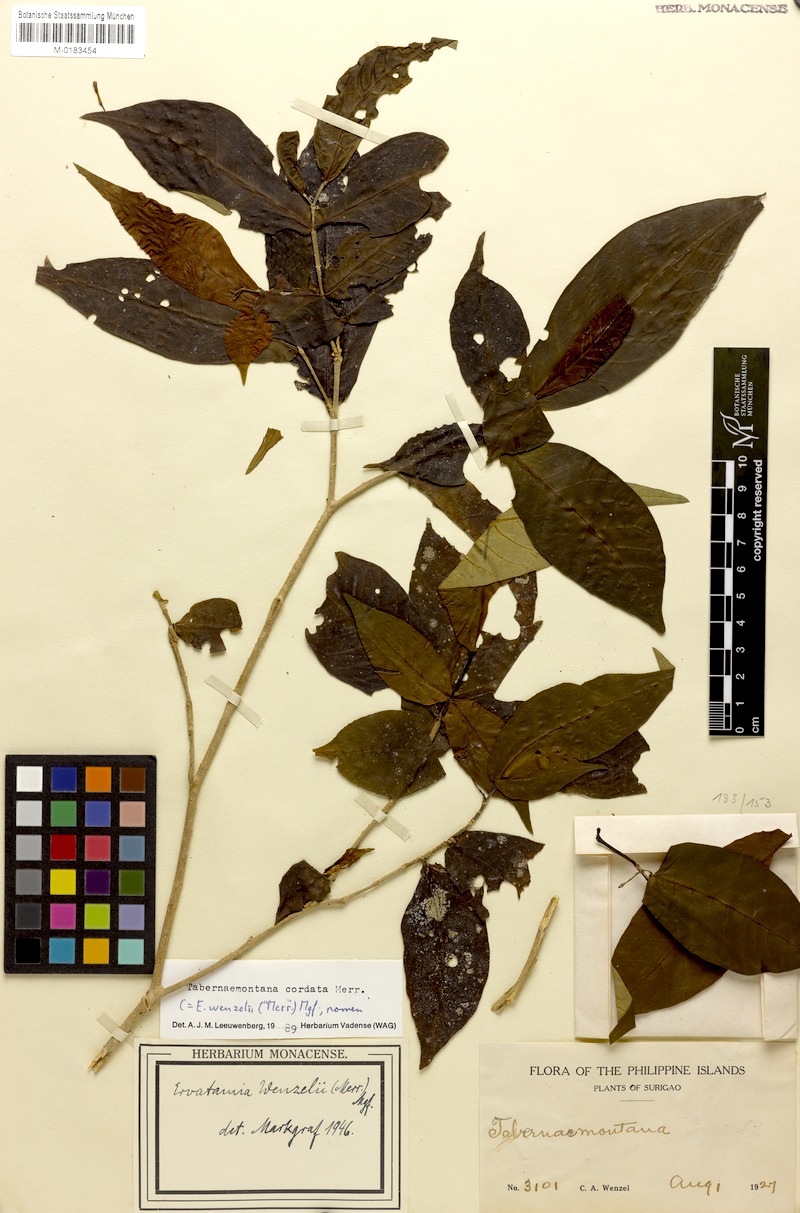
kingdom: Plantae
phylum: Tracheophyta
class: Magnoliopsida
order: Gentianales
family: Apocynaceae
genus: Tabernaemontana
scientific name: Tabernaemontana cordata
